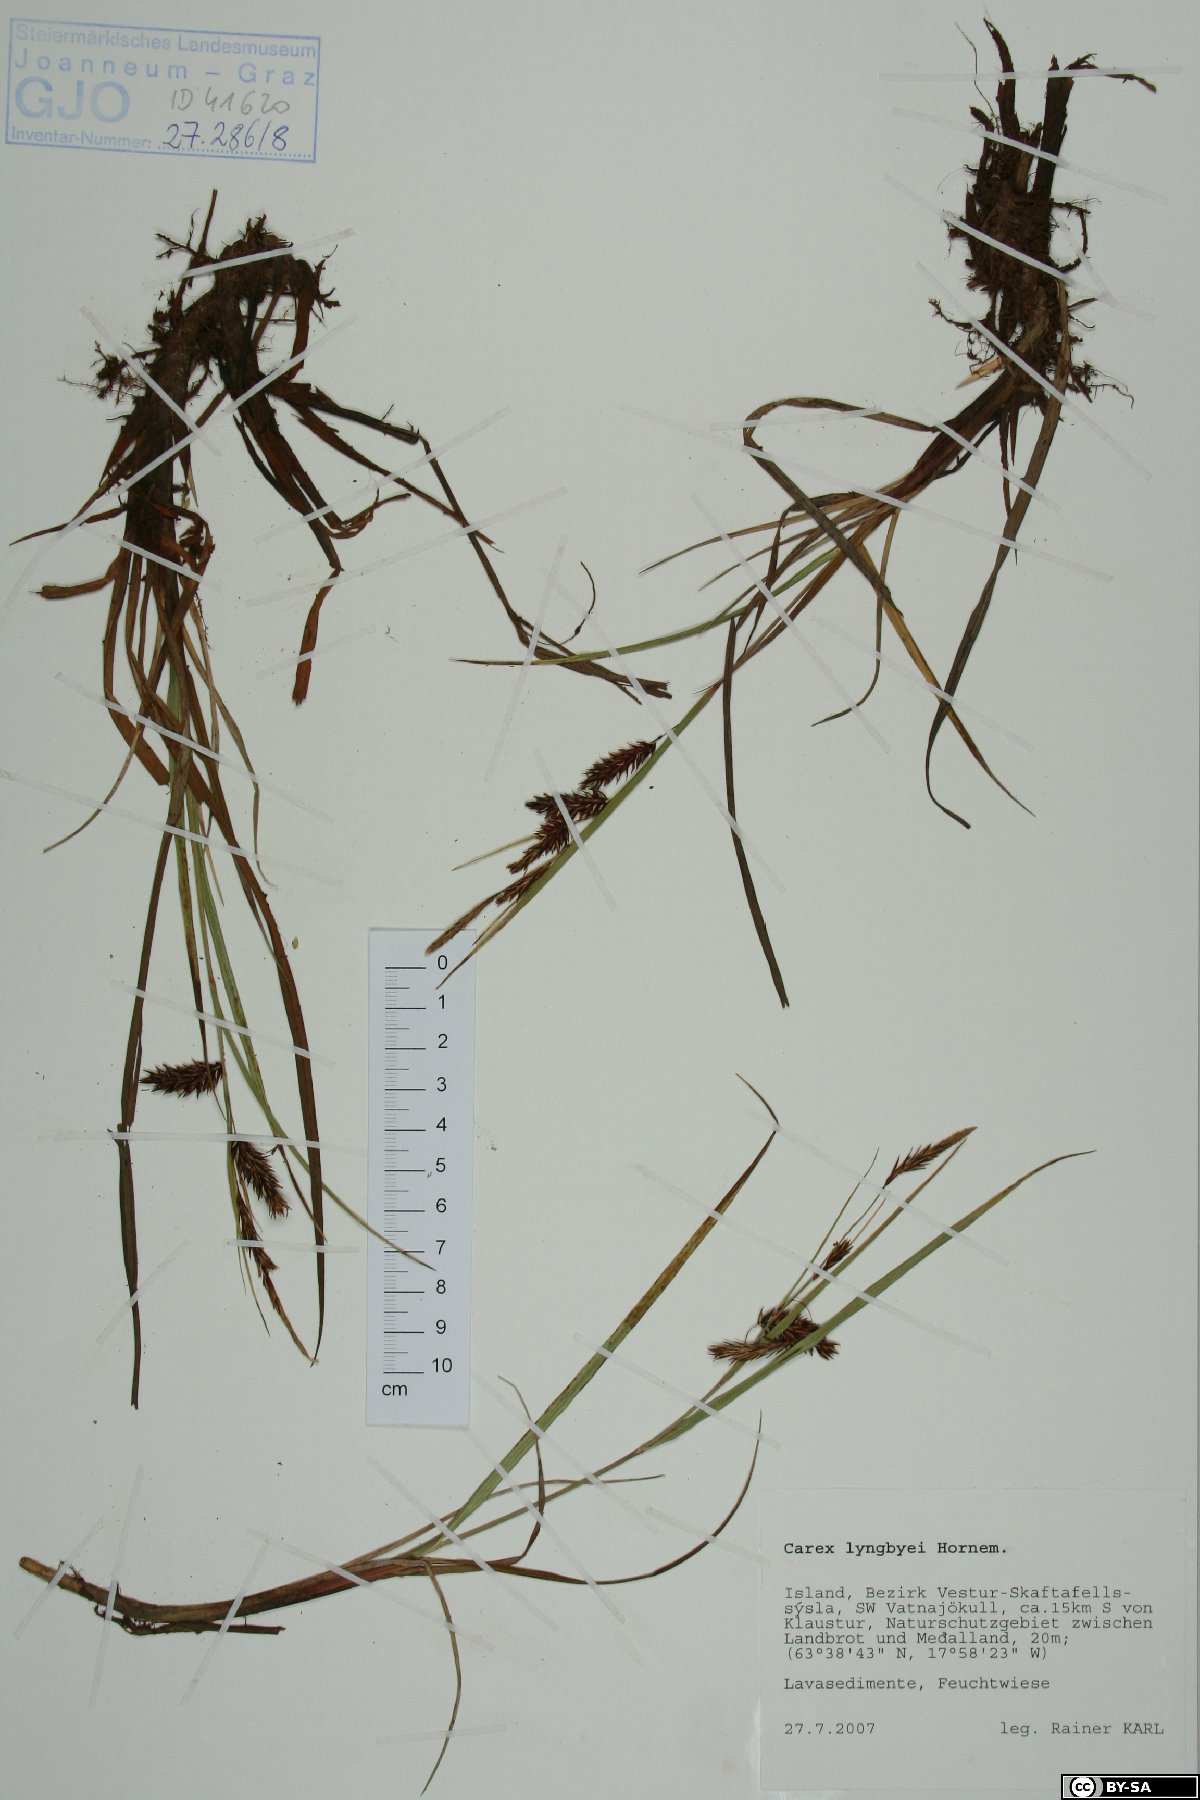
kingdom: Plantae
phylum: Tracheophyta
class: Liliopsida
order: Poales
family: Cyperaceae
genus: Carex
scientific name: Carex lyngbyei
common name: Lyngbye's sedge
